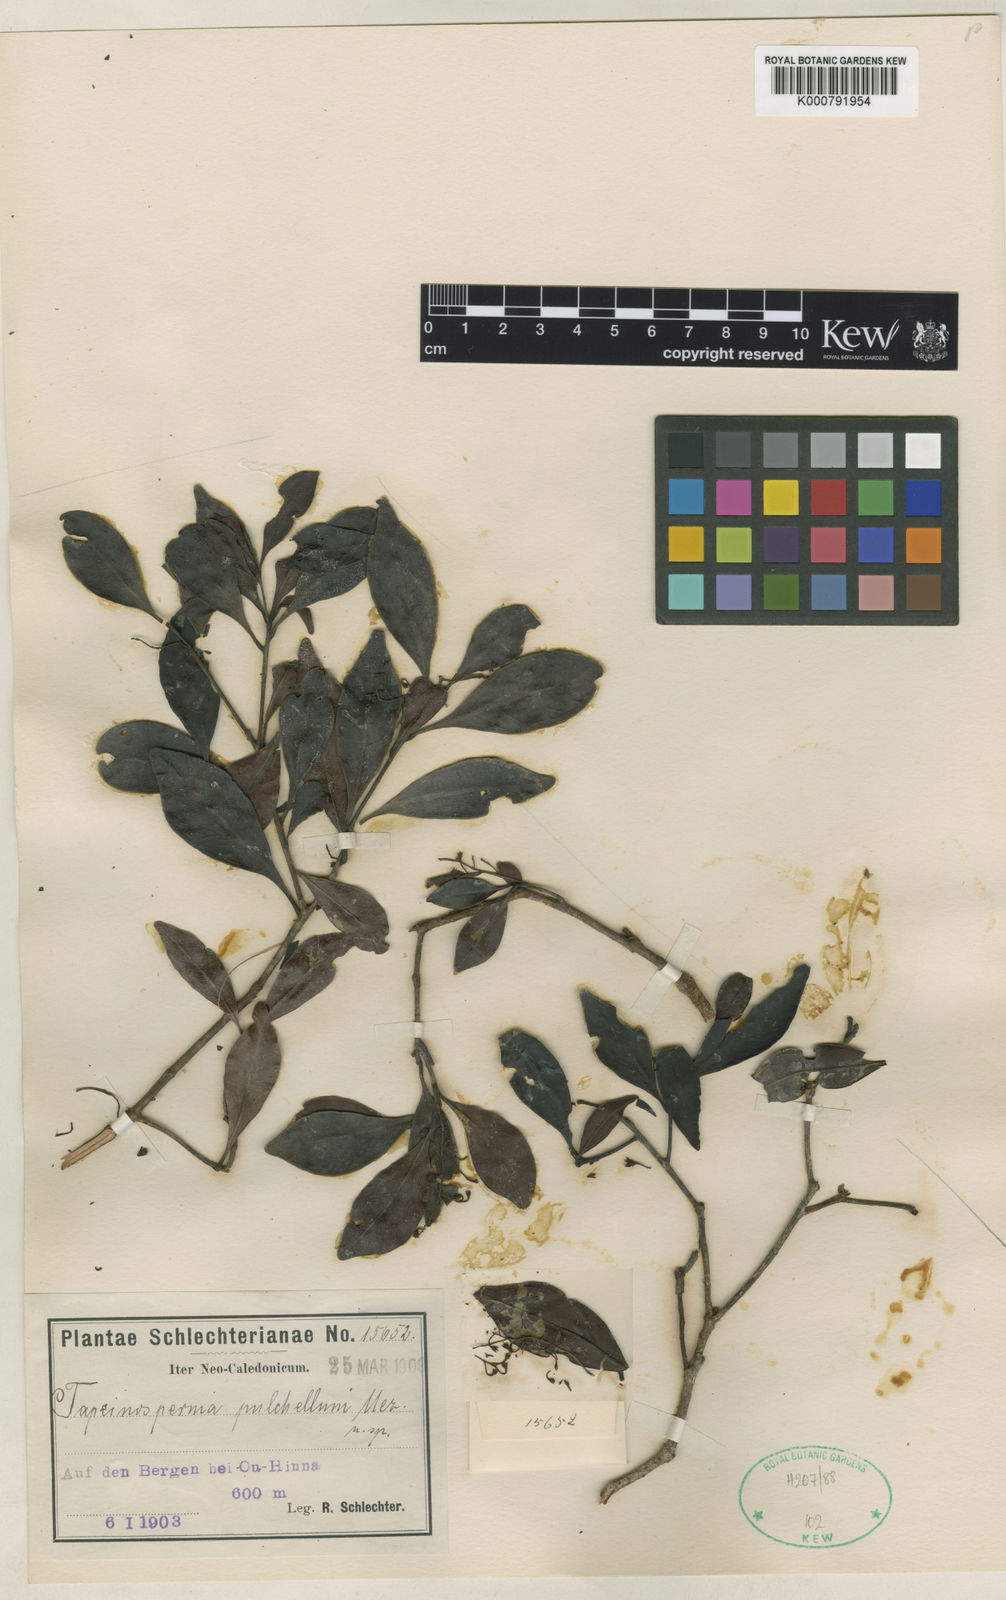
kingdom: Plantae
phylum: Tracheophyta
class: Magnoliopsida
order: Ericales
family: Primulaceae
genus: Tapeinosperma
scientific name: Tapeinosperma pulchellum
